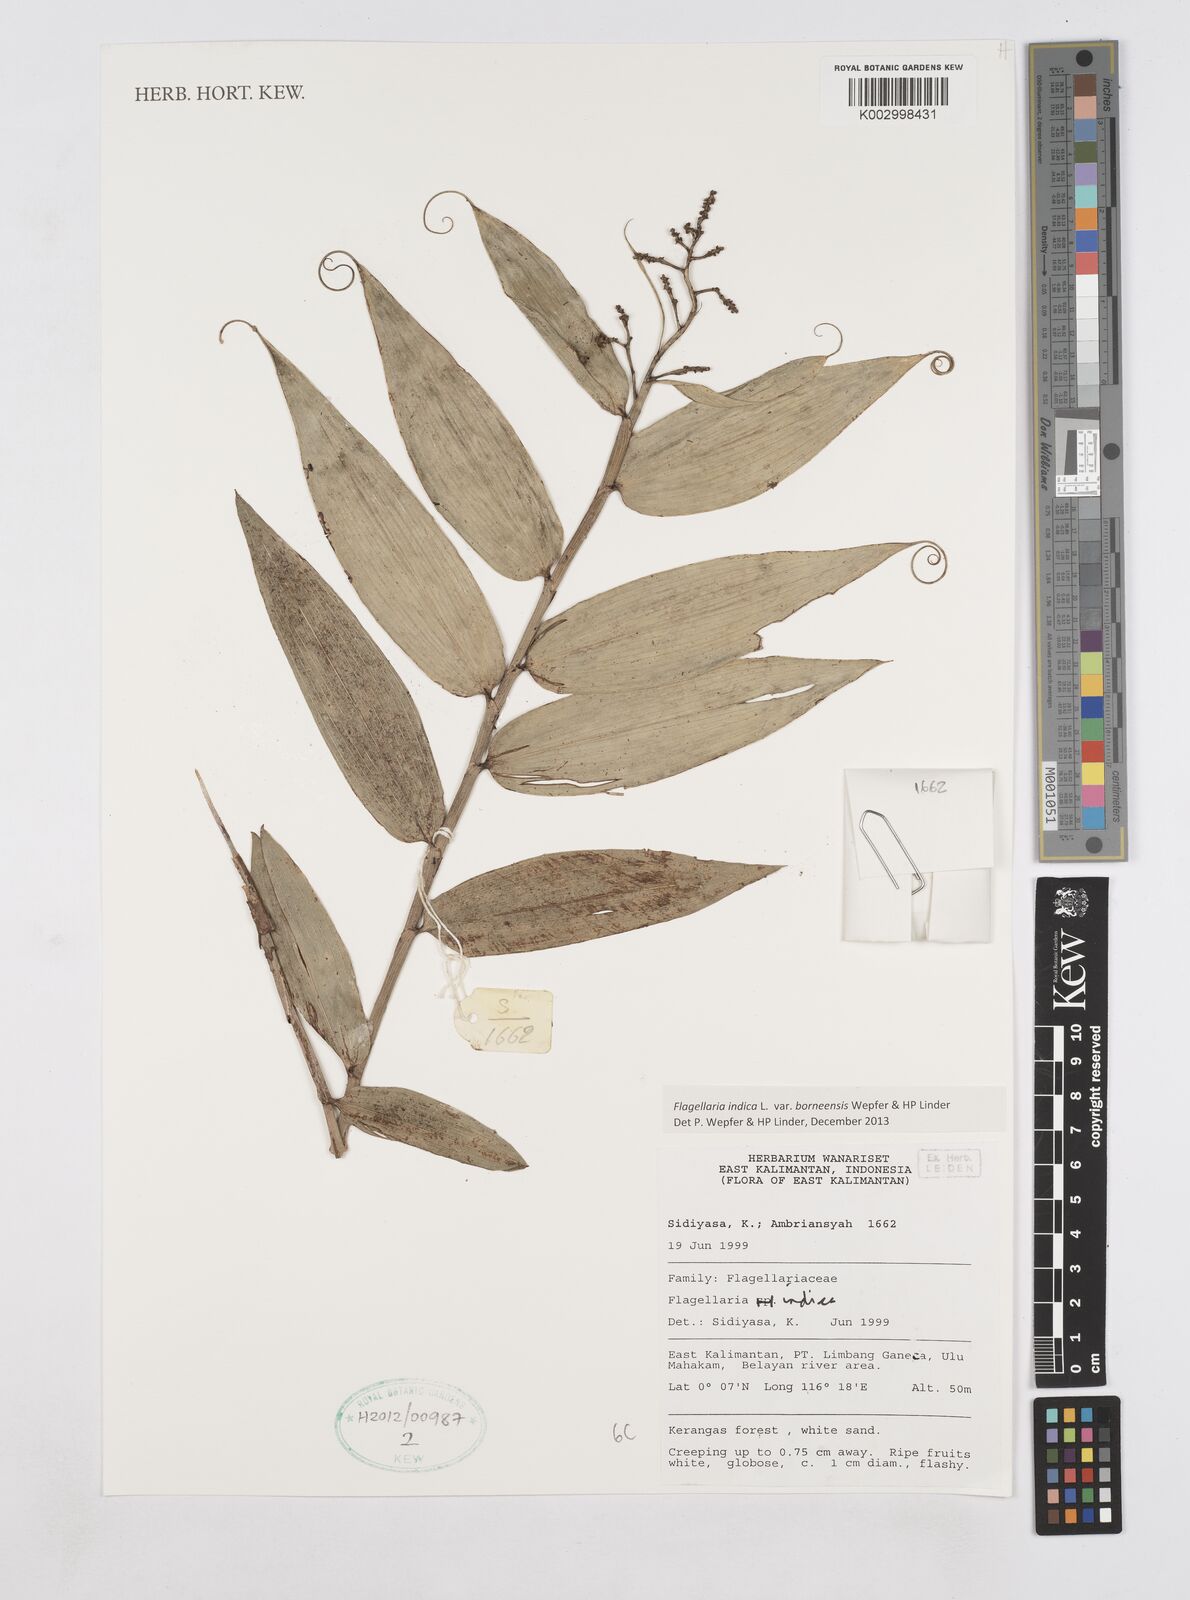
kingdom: Plantae
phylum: Tracheophyta
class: Liliopsida
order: Poales
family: Flagellariaceae
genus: Flagellaria
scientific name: Flagellaria indica
